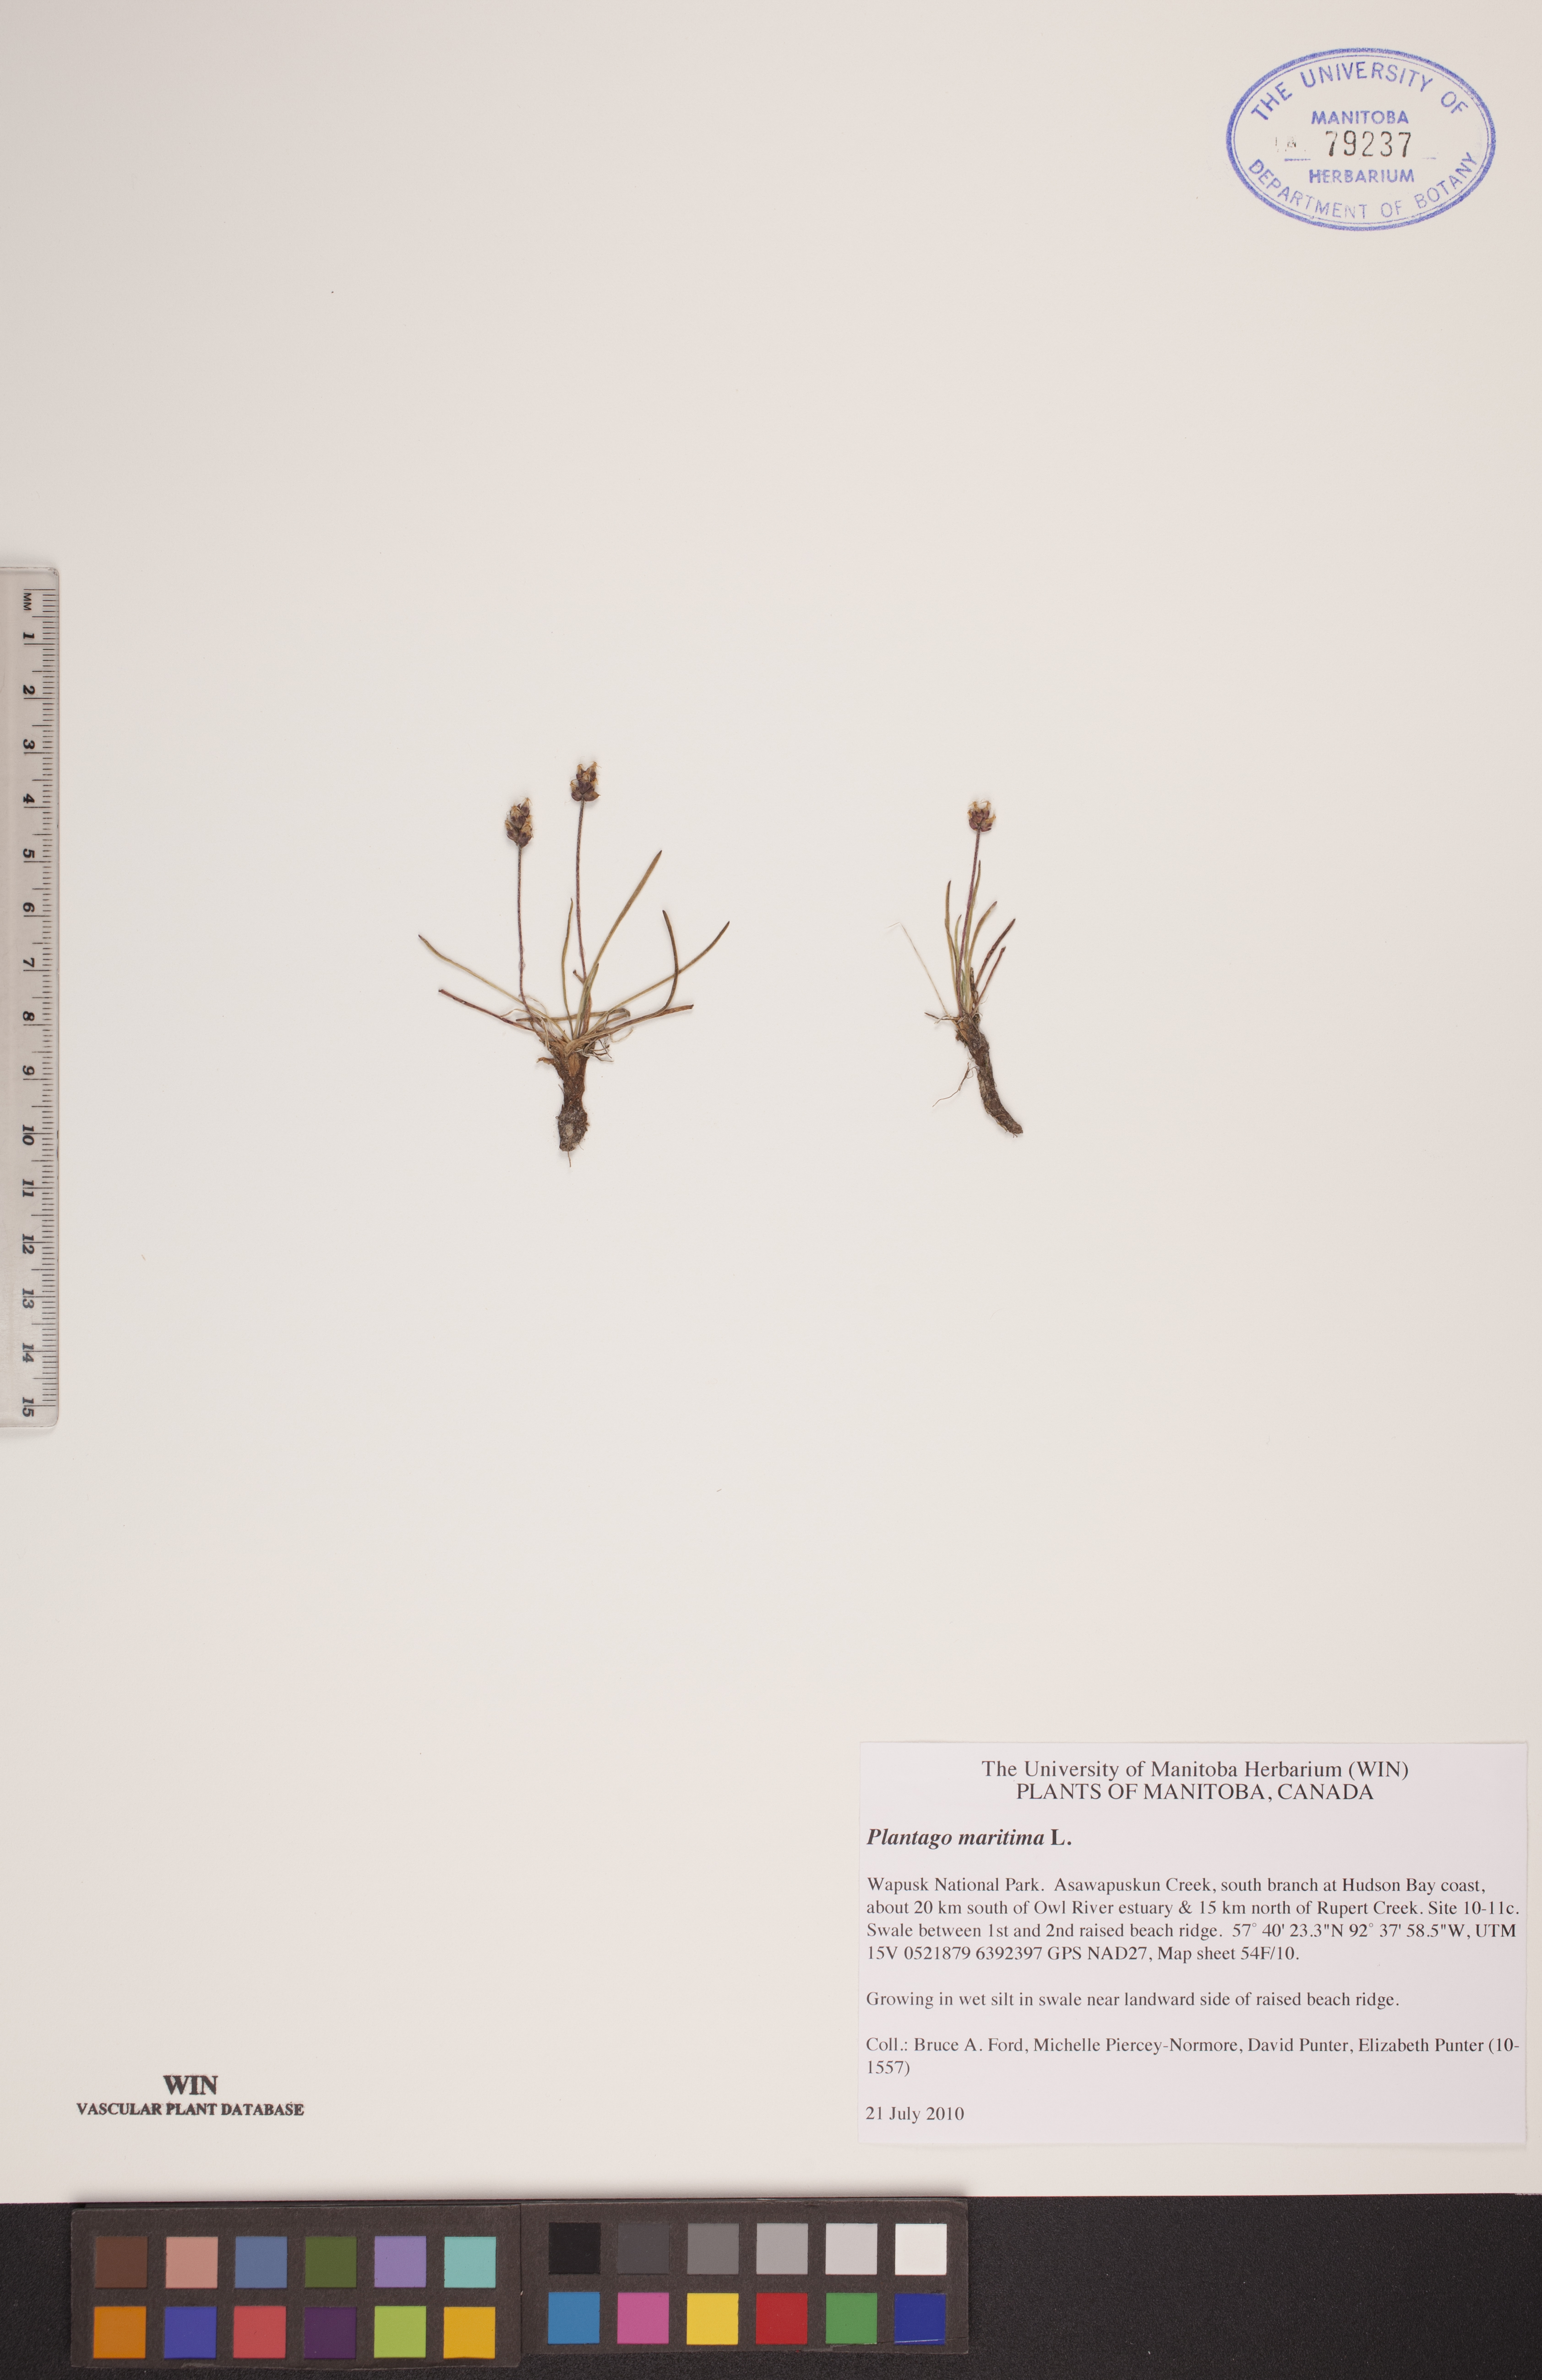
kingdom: Plantae
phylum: Tracheophyta
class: Magnoliopsida
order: Lamiales
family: Plantaginaceae
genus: Plantago
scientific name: Plantago crassifolia
